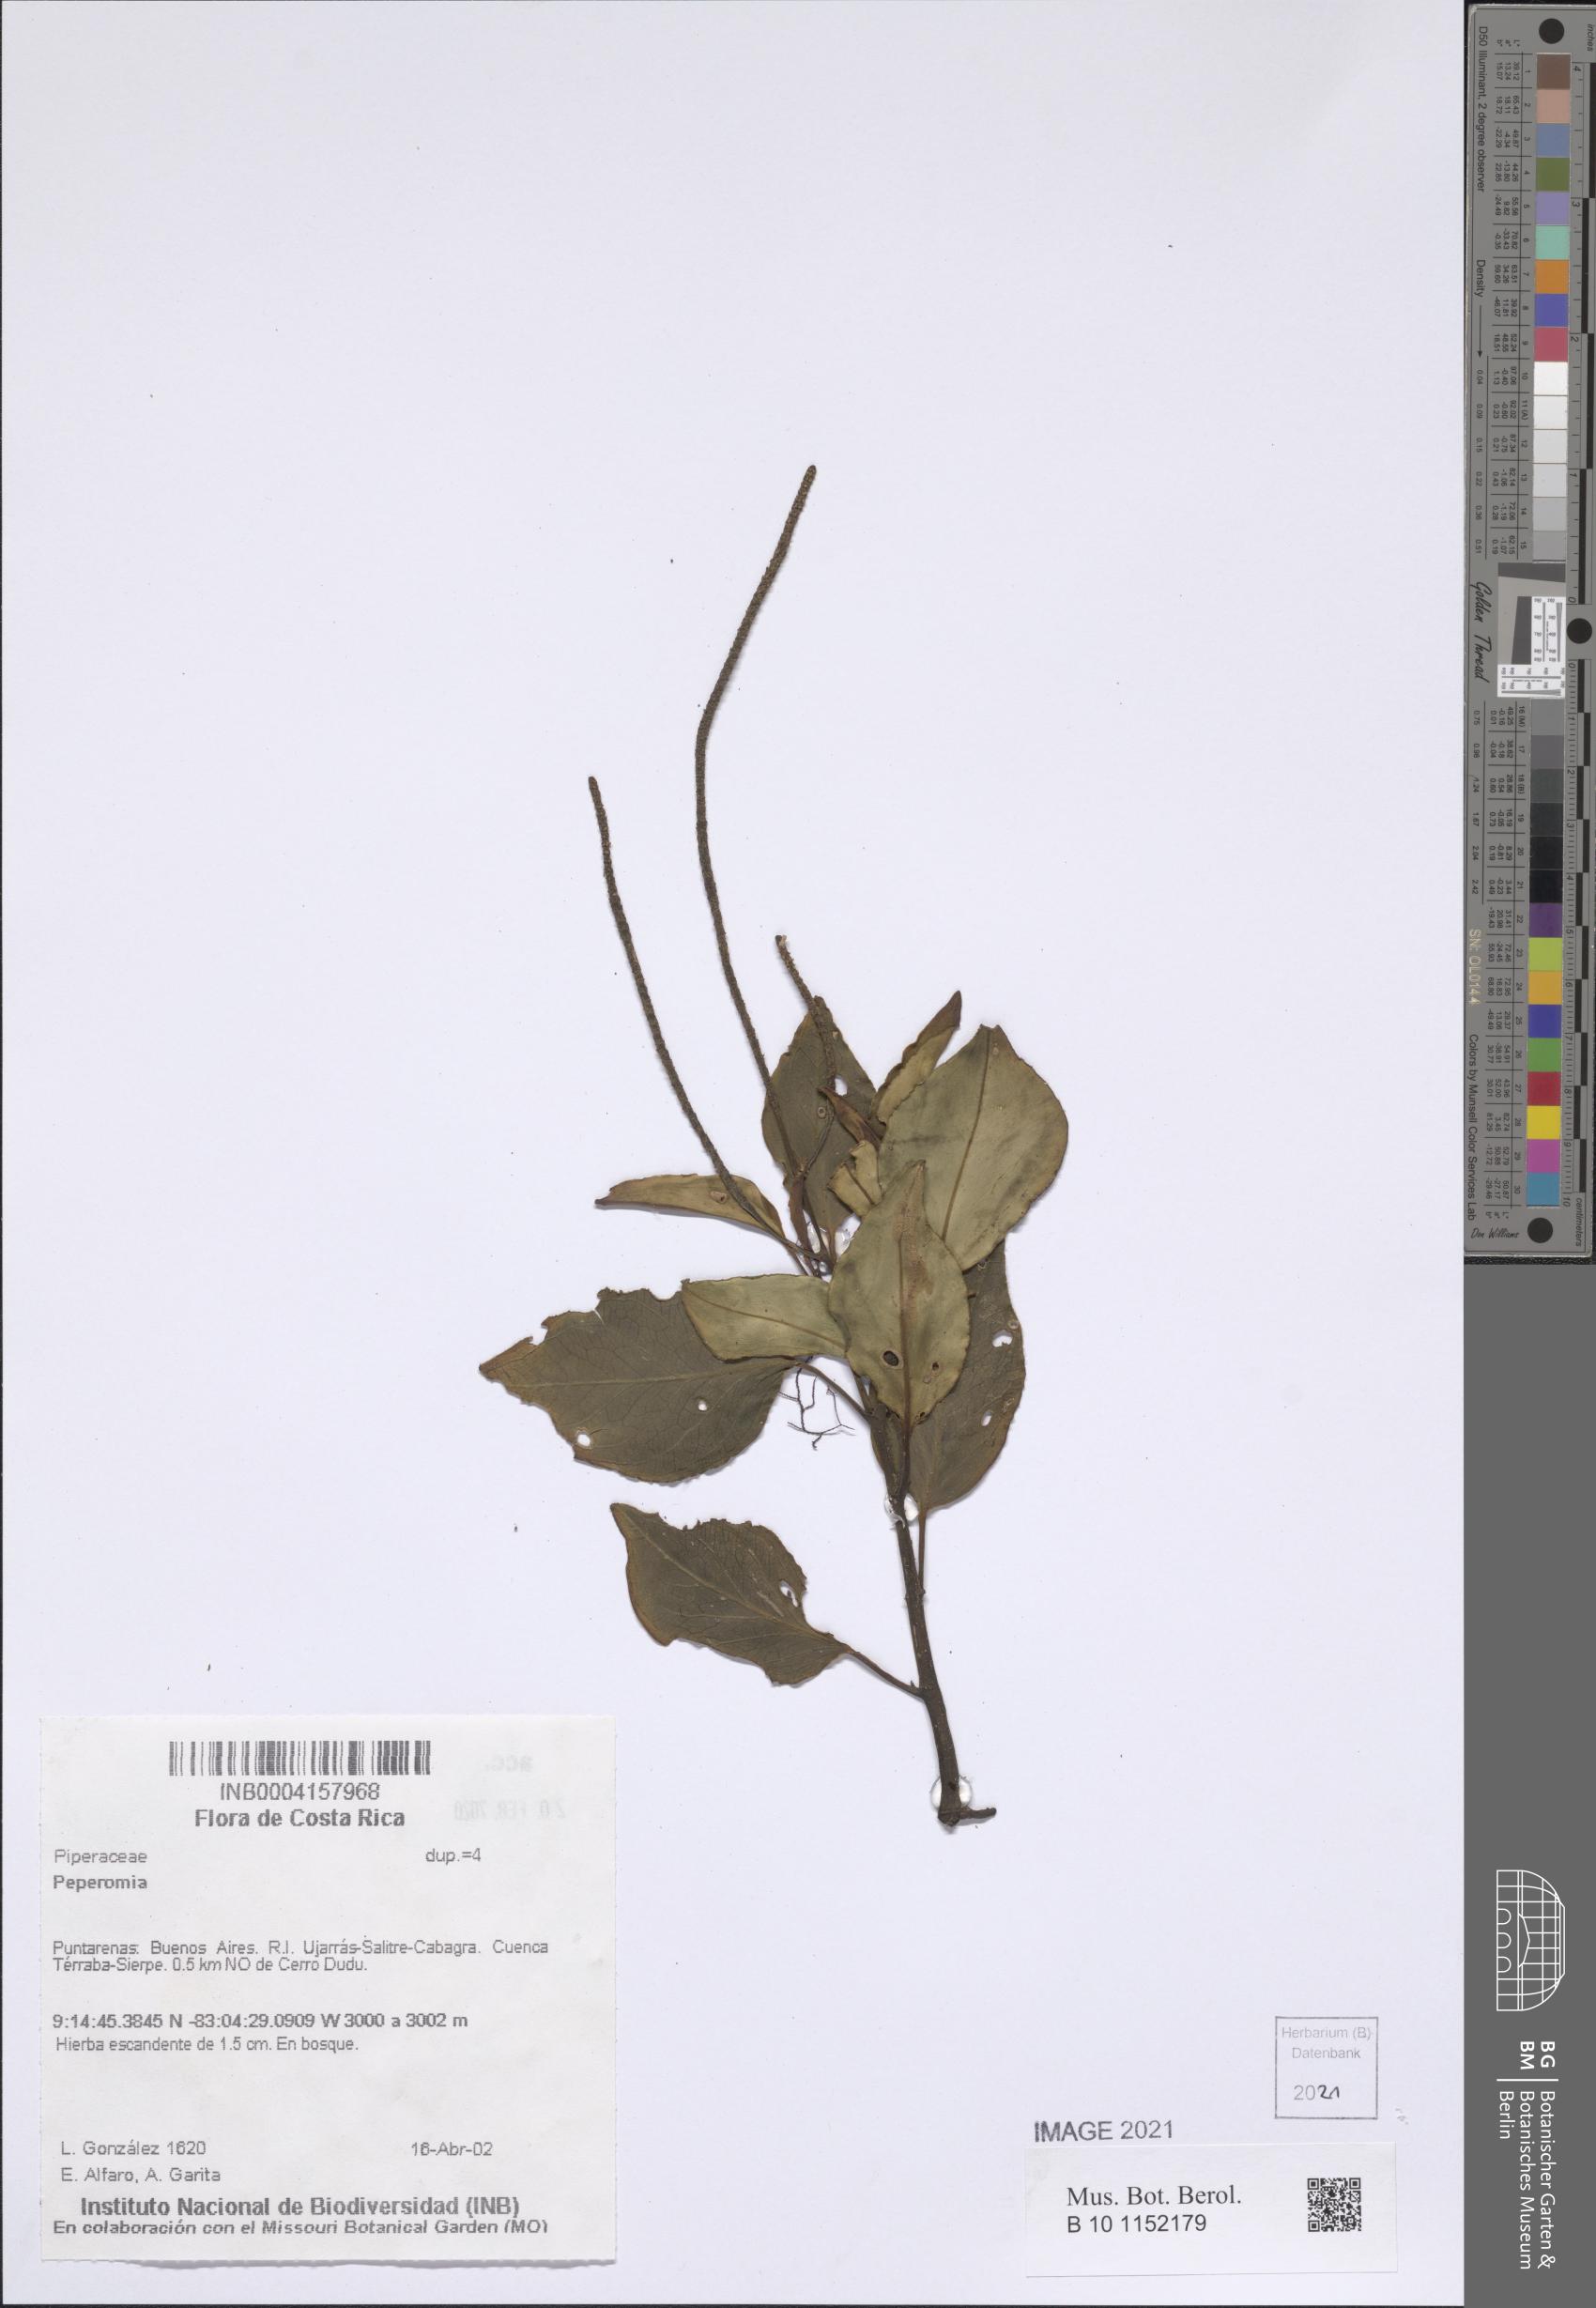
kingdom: Plantae
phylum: Tracheophyta
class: Magnoliopsida
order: Piperales
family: Piperaceae
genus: Peperomia
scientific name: Peperomia
